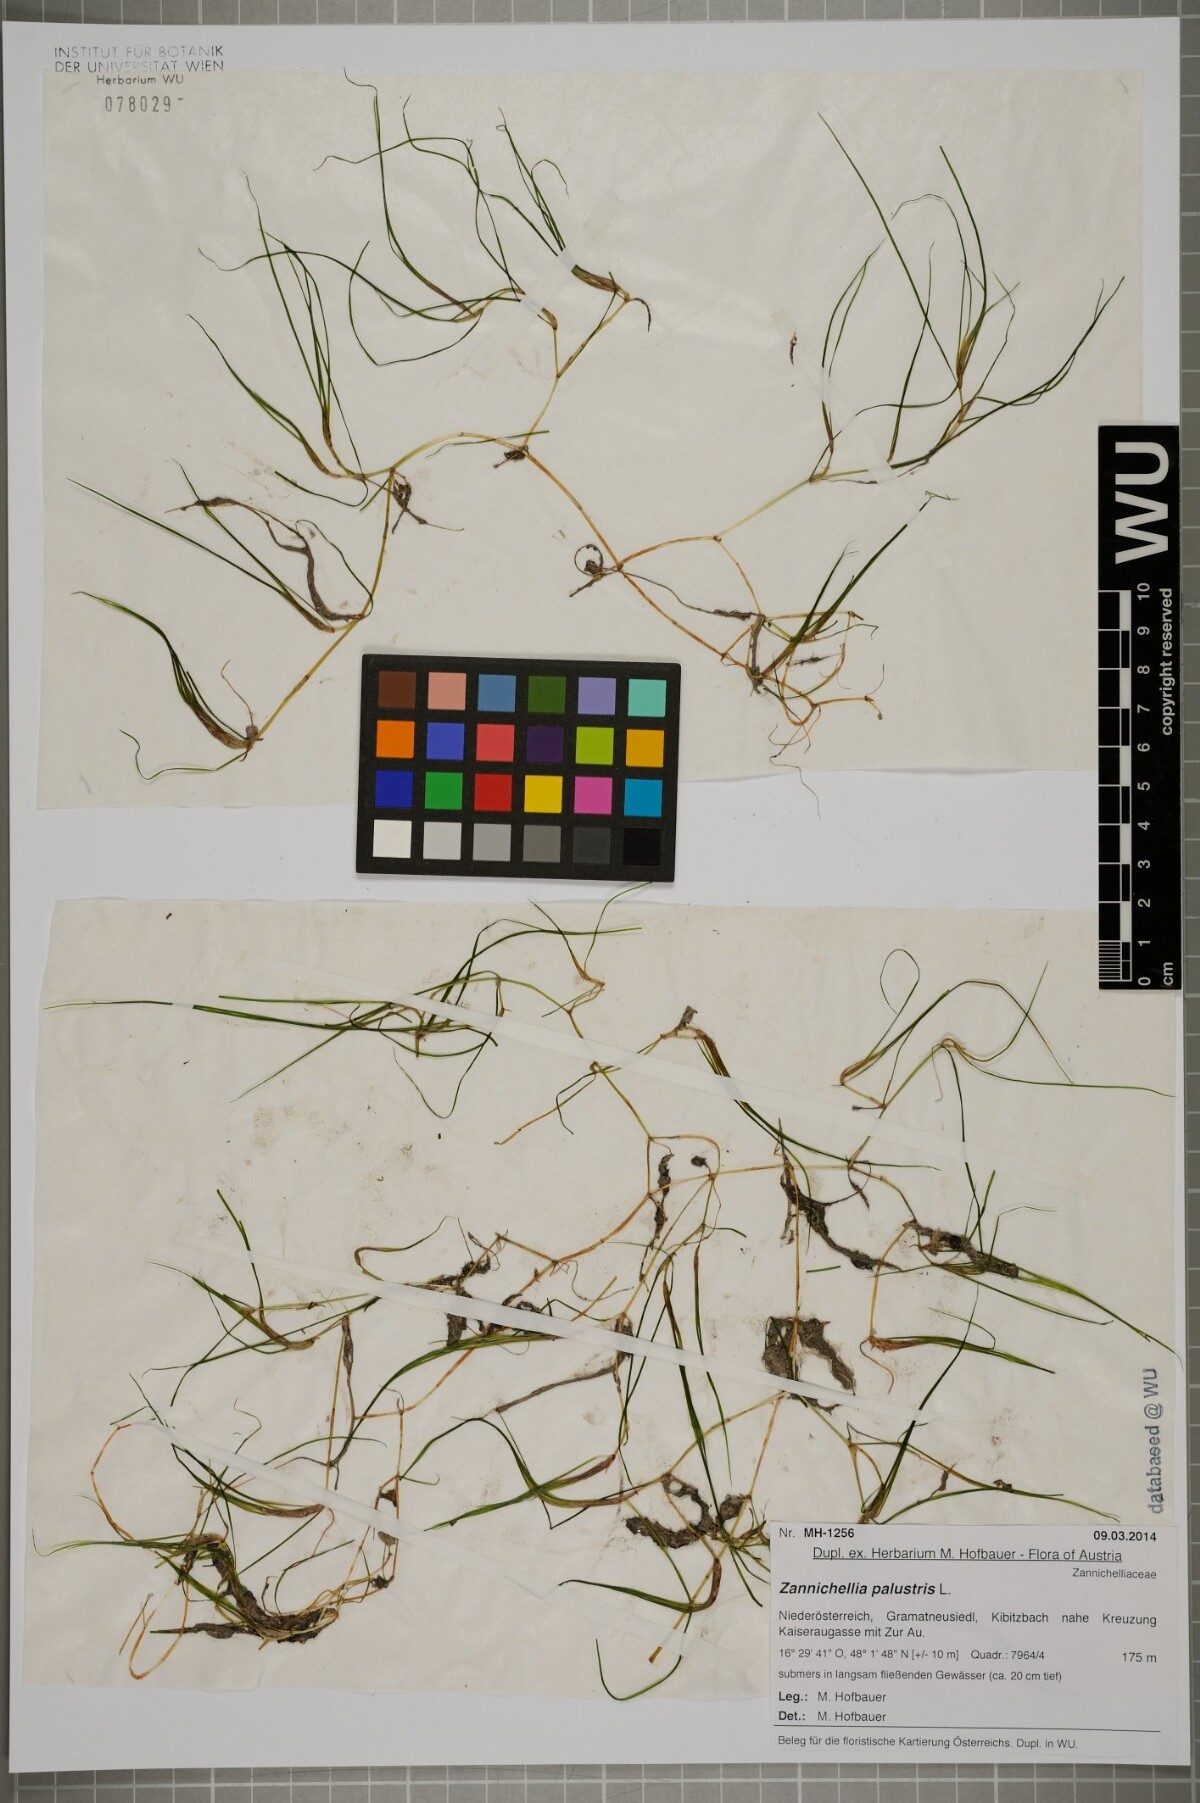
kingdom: Plantae
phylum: Tracheophyta
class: Liliopsida
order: Alismatales
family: Potamogetonaceae
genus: Zannichellia
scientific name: Zannichellia palustris
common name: Horned pondweed
